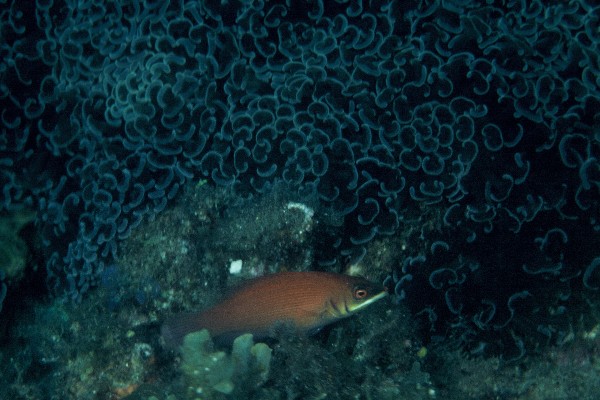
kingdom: Animalia
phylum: Chordata
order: Perciformes
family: Labridae
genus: Pseudocheilinus
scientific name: Pseudocheilinus evanidus
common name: Disappearing wrasse
